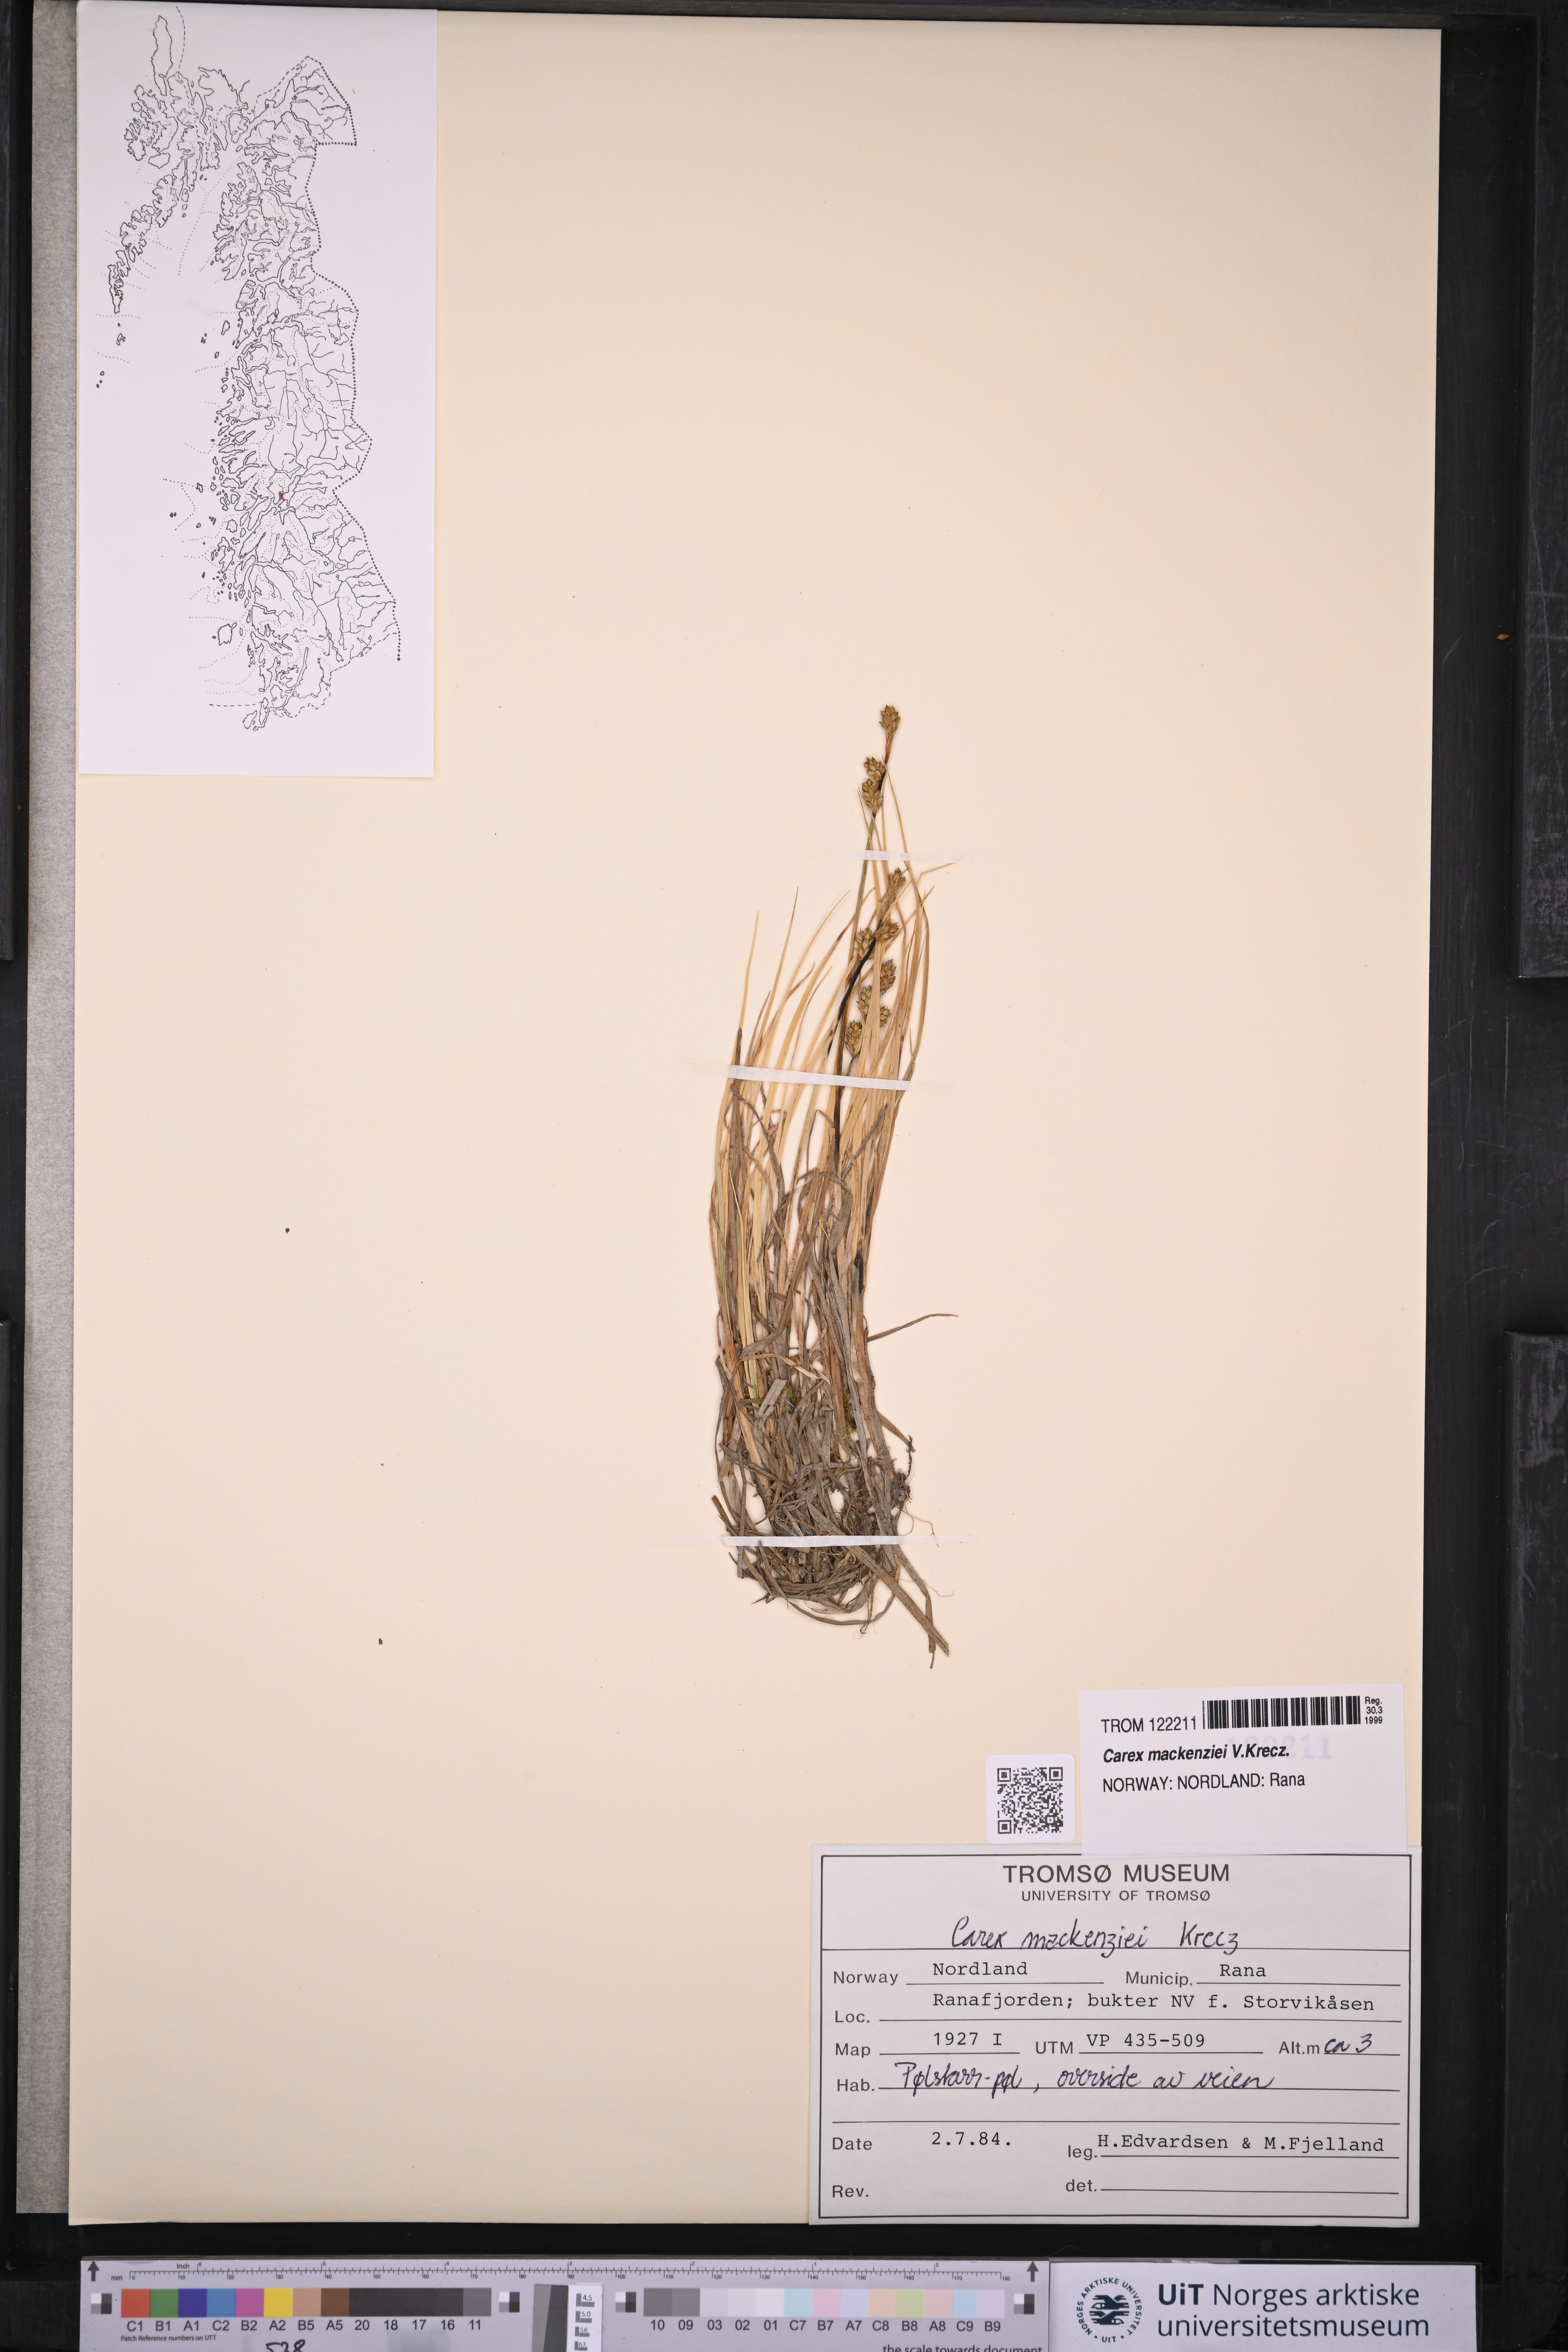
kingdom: Plantae
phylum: Tracheophyta
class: Liliopsida
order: Poales
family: Cyperaceae
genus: Carex
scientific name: Carex mackenziei
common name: Mackenzie's sedge
